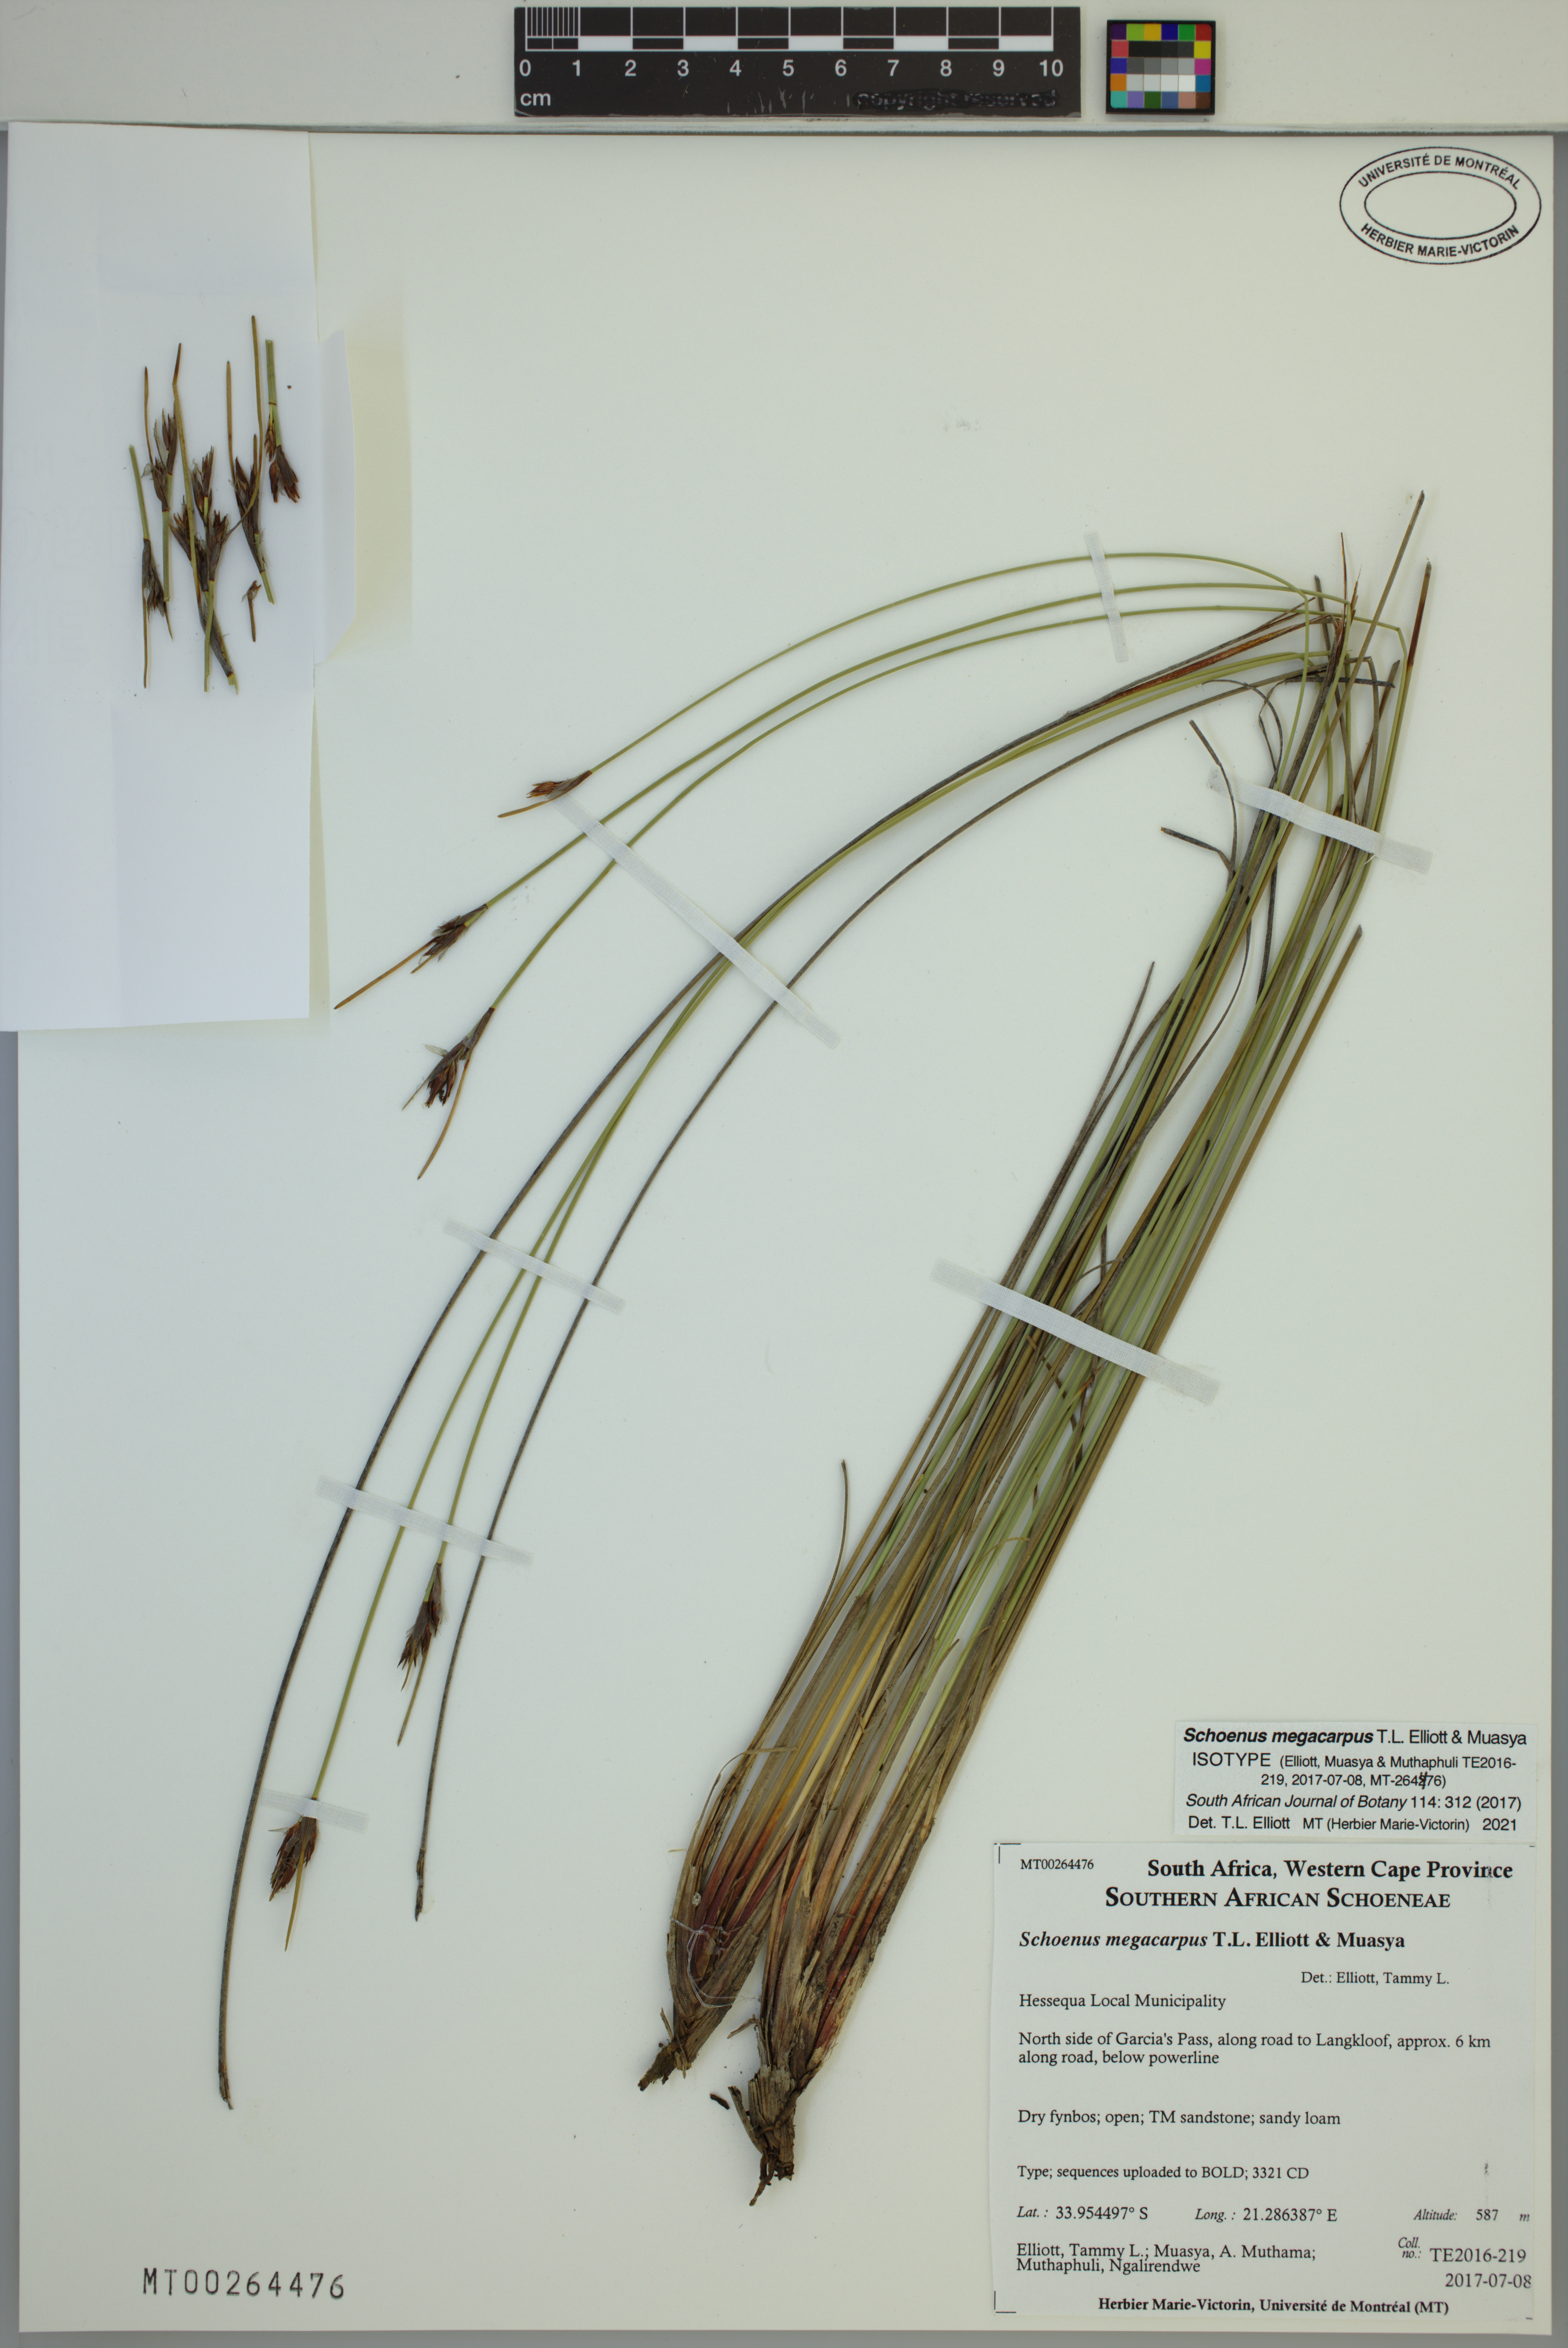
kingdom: Plantae
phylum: Tracheophyta
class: Liliopsida
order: Poales
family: Cyperaceae
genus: Schoenus
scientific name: Schoenus megacarpus
